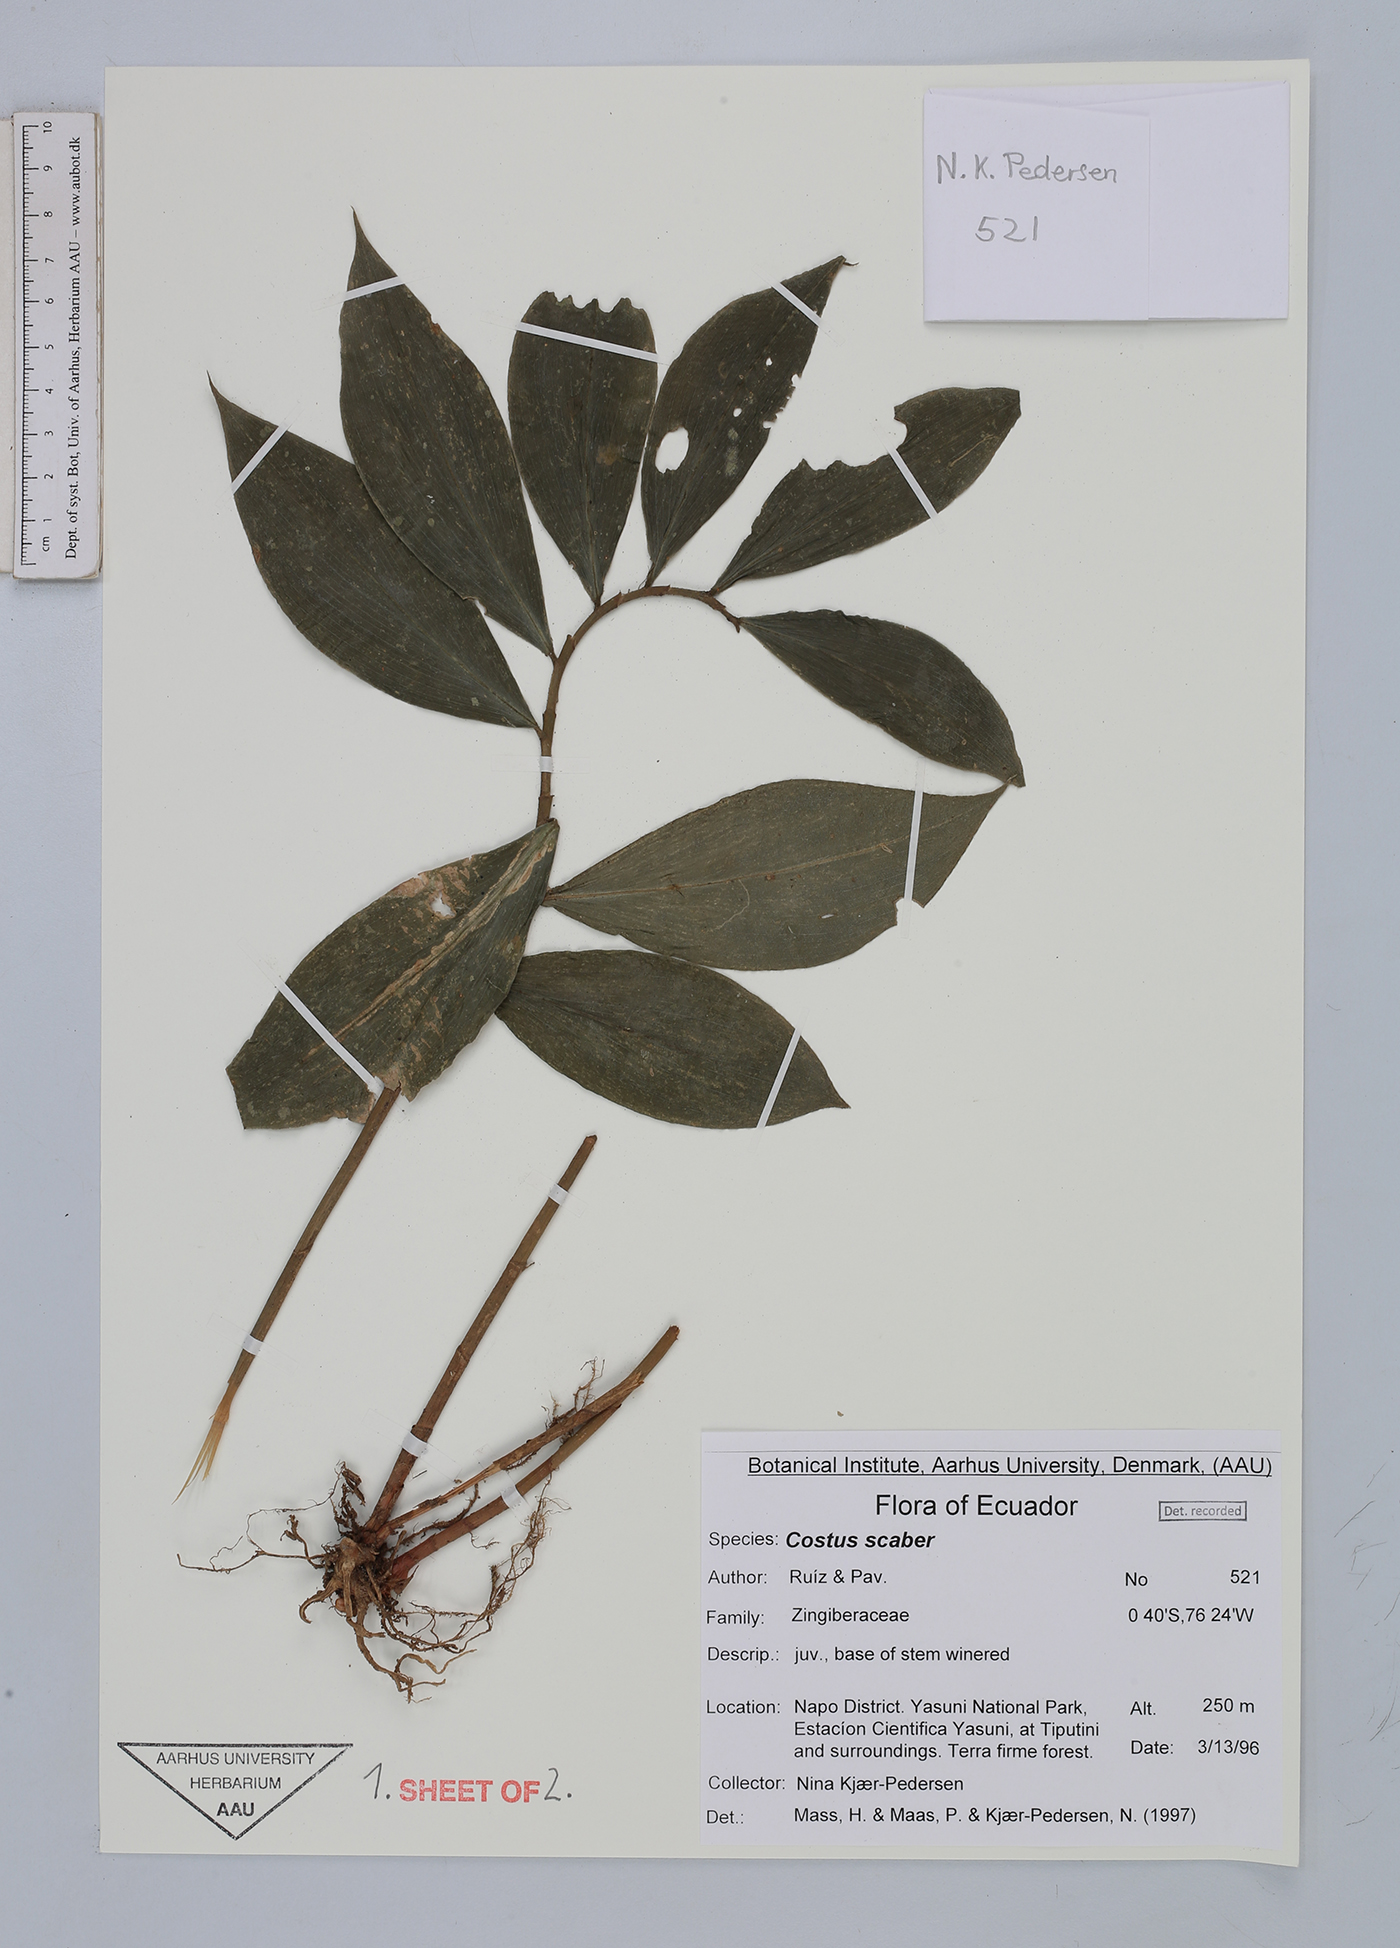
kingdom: Plantae
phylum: Tracheophyta
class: Liliopsida
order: Zingiberales
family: Costaceae
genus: Costus
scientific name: Costus scaber
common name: Spiral head ginger
